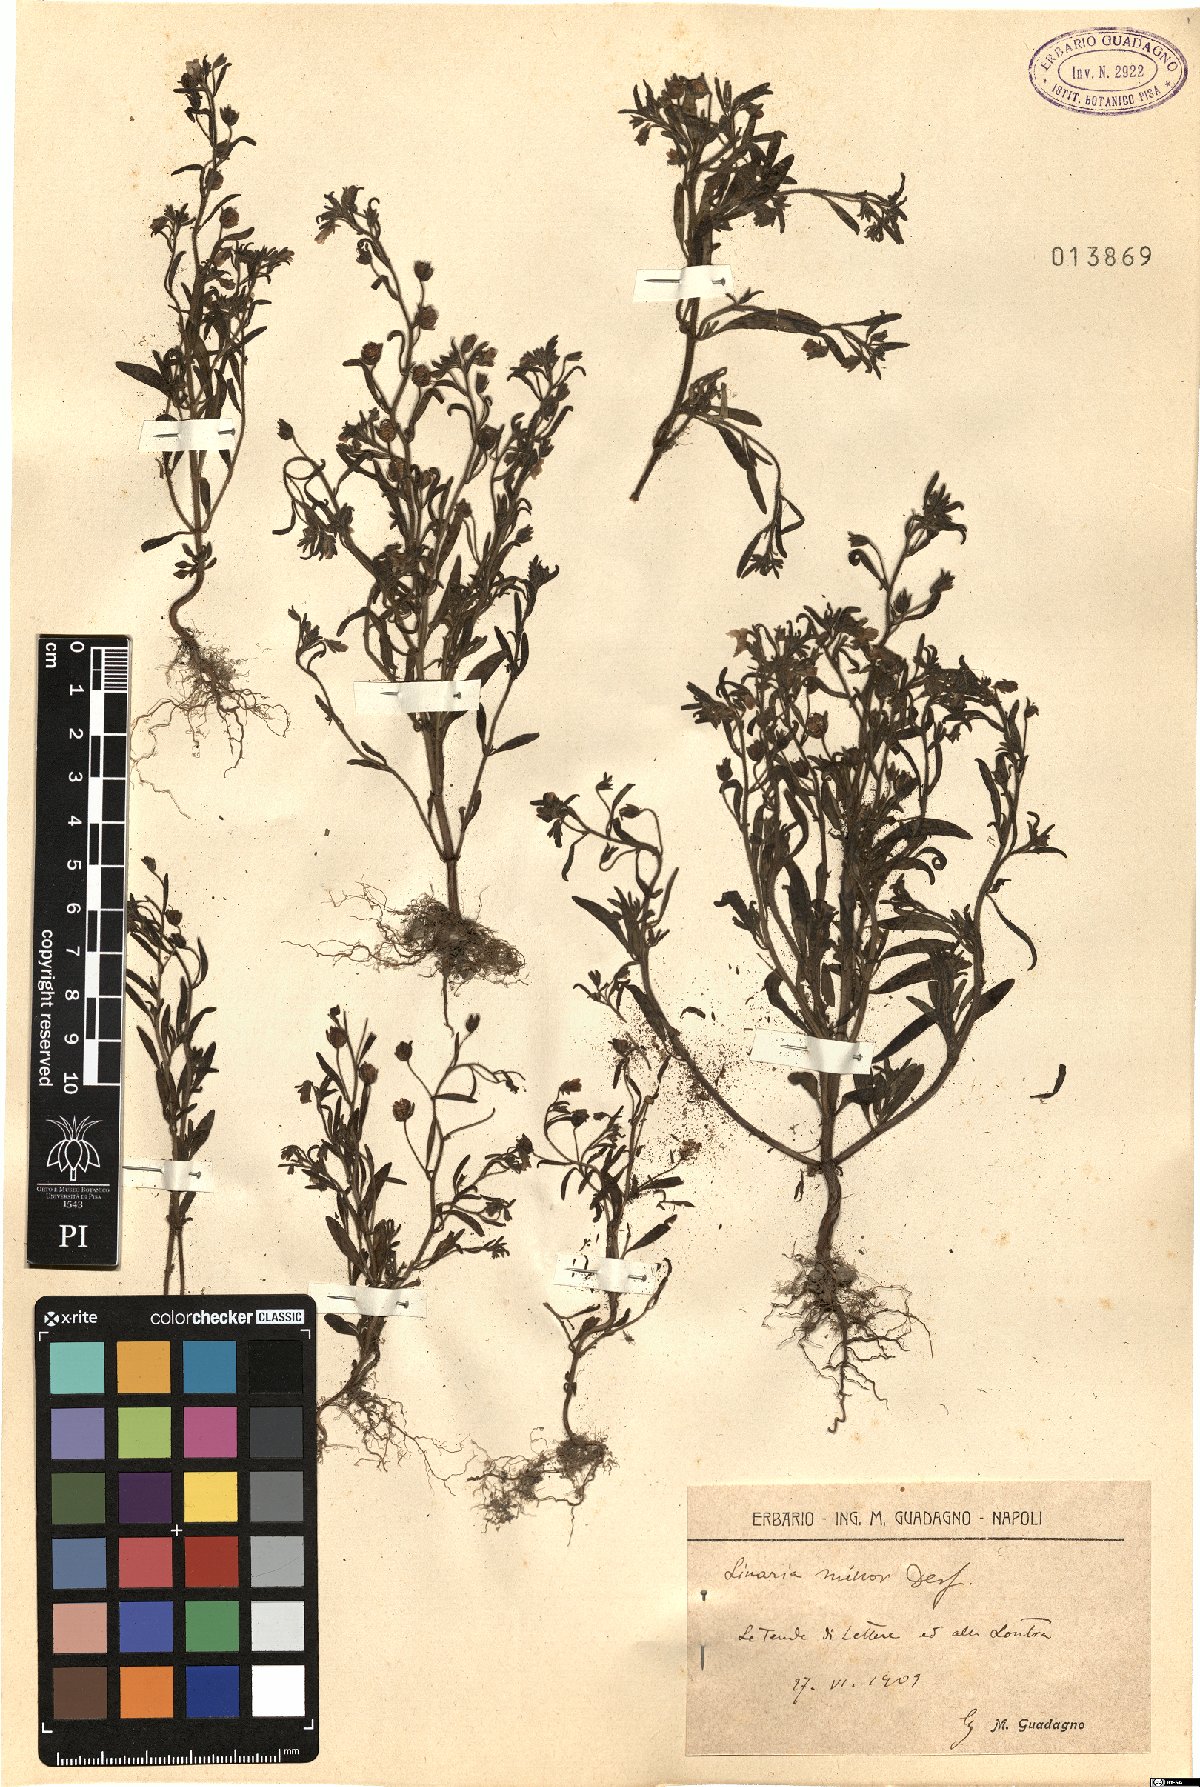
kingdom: Plantae
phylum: Tracheophyta
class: Magnoliopsida
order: Lamiales
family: Plantaginaceae
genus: Chaenorhinum
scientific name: Chaenorhinum minus
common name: Dwarf snapdragon
